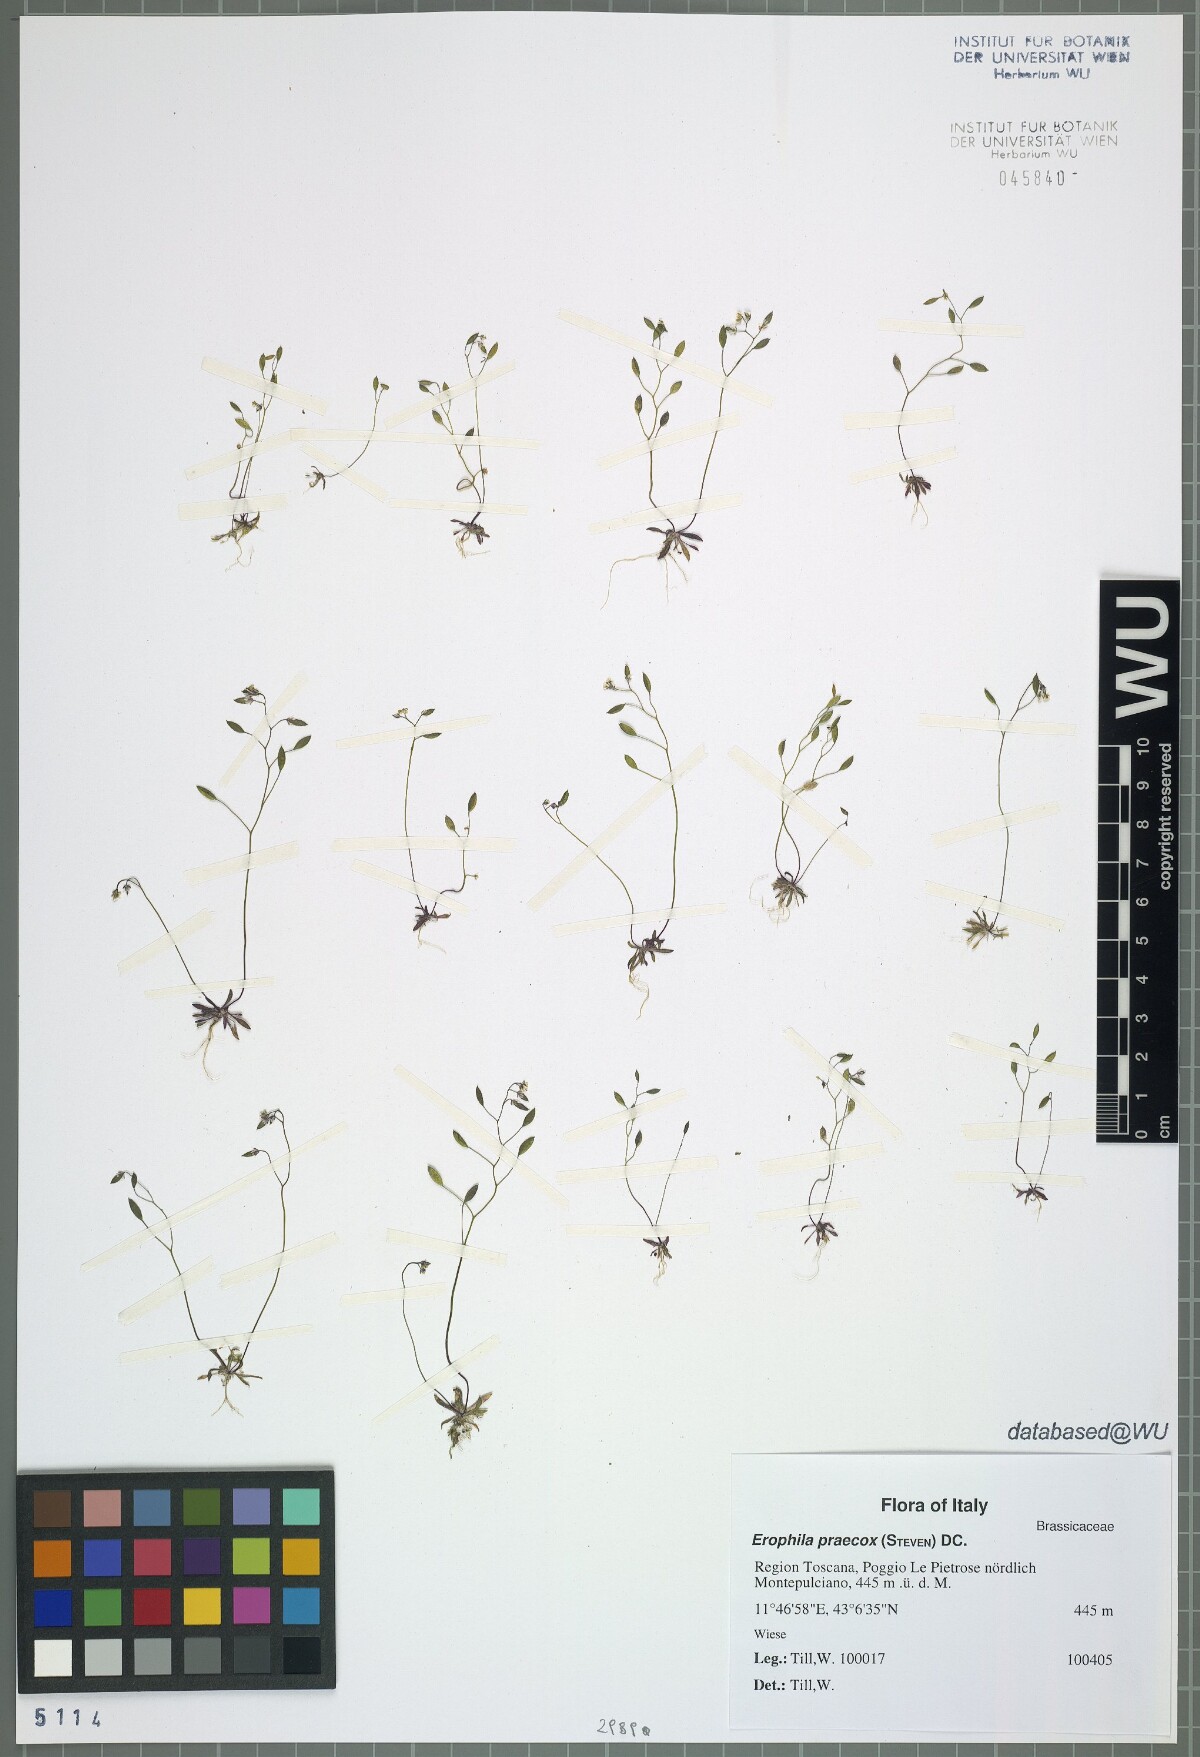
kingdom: Plantae
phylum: Tracheophyta
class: Magnoliopsida
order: Brassicales
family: Brassicaceae
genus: Draba
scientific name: Draba verna
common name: Spring draba
